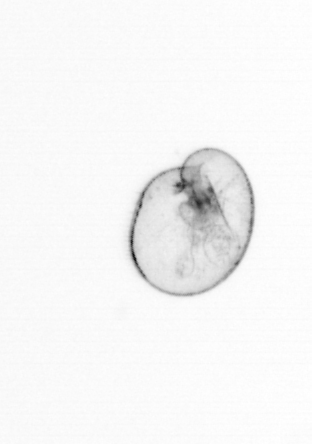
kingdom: Chromista
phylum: Myzozoa
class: Dinophyceae
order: Noctilucales
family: Noctilucaceae
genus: Noctiluca
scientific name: Noctiluca scintillans
